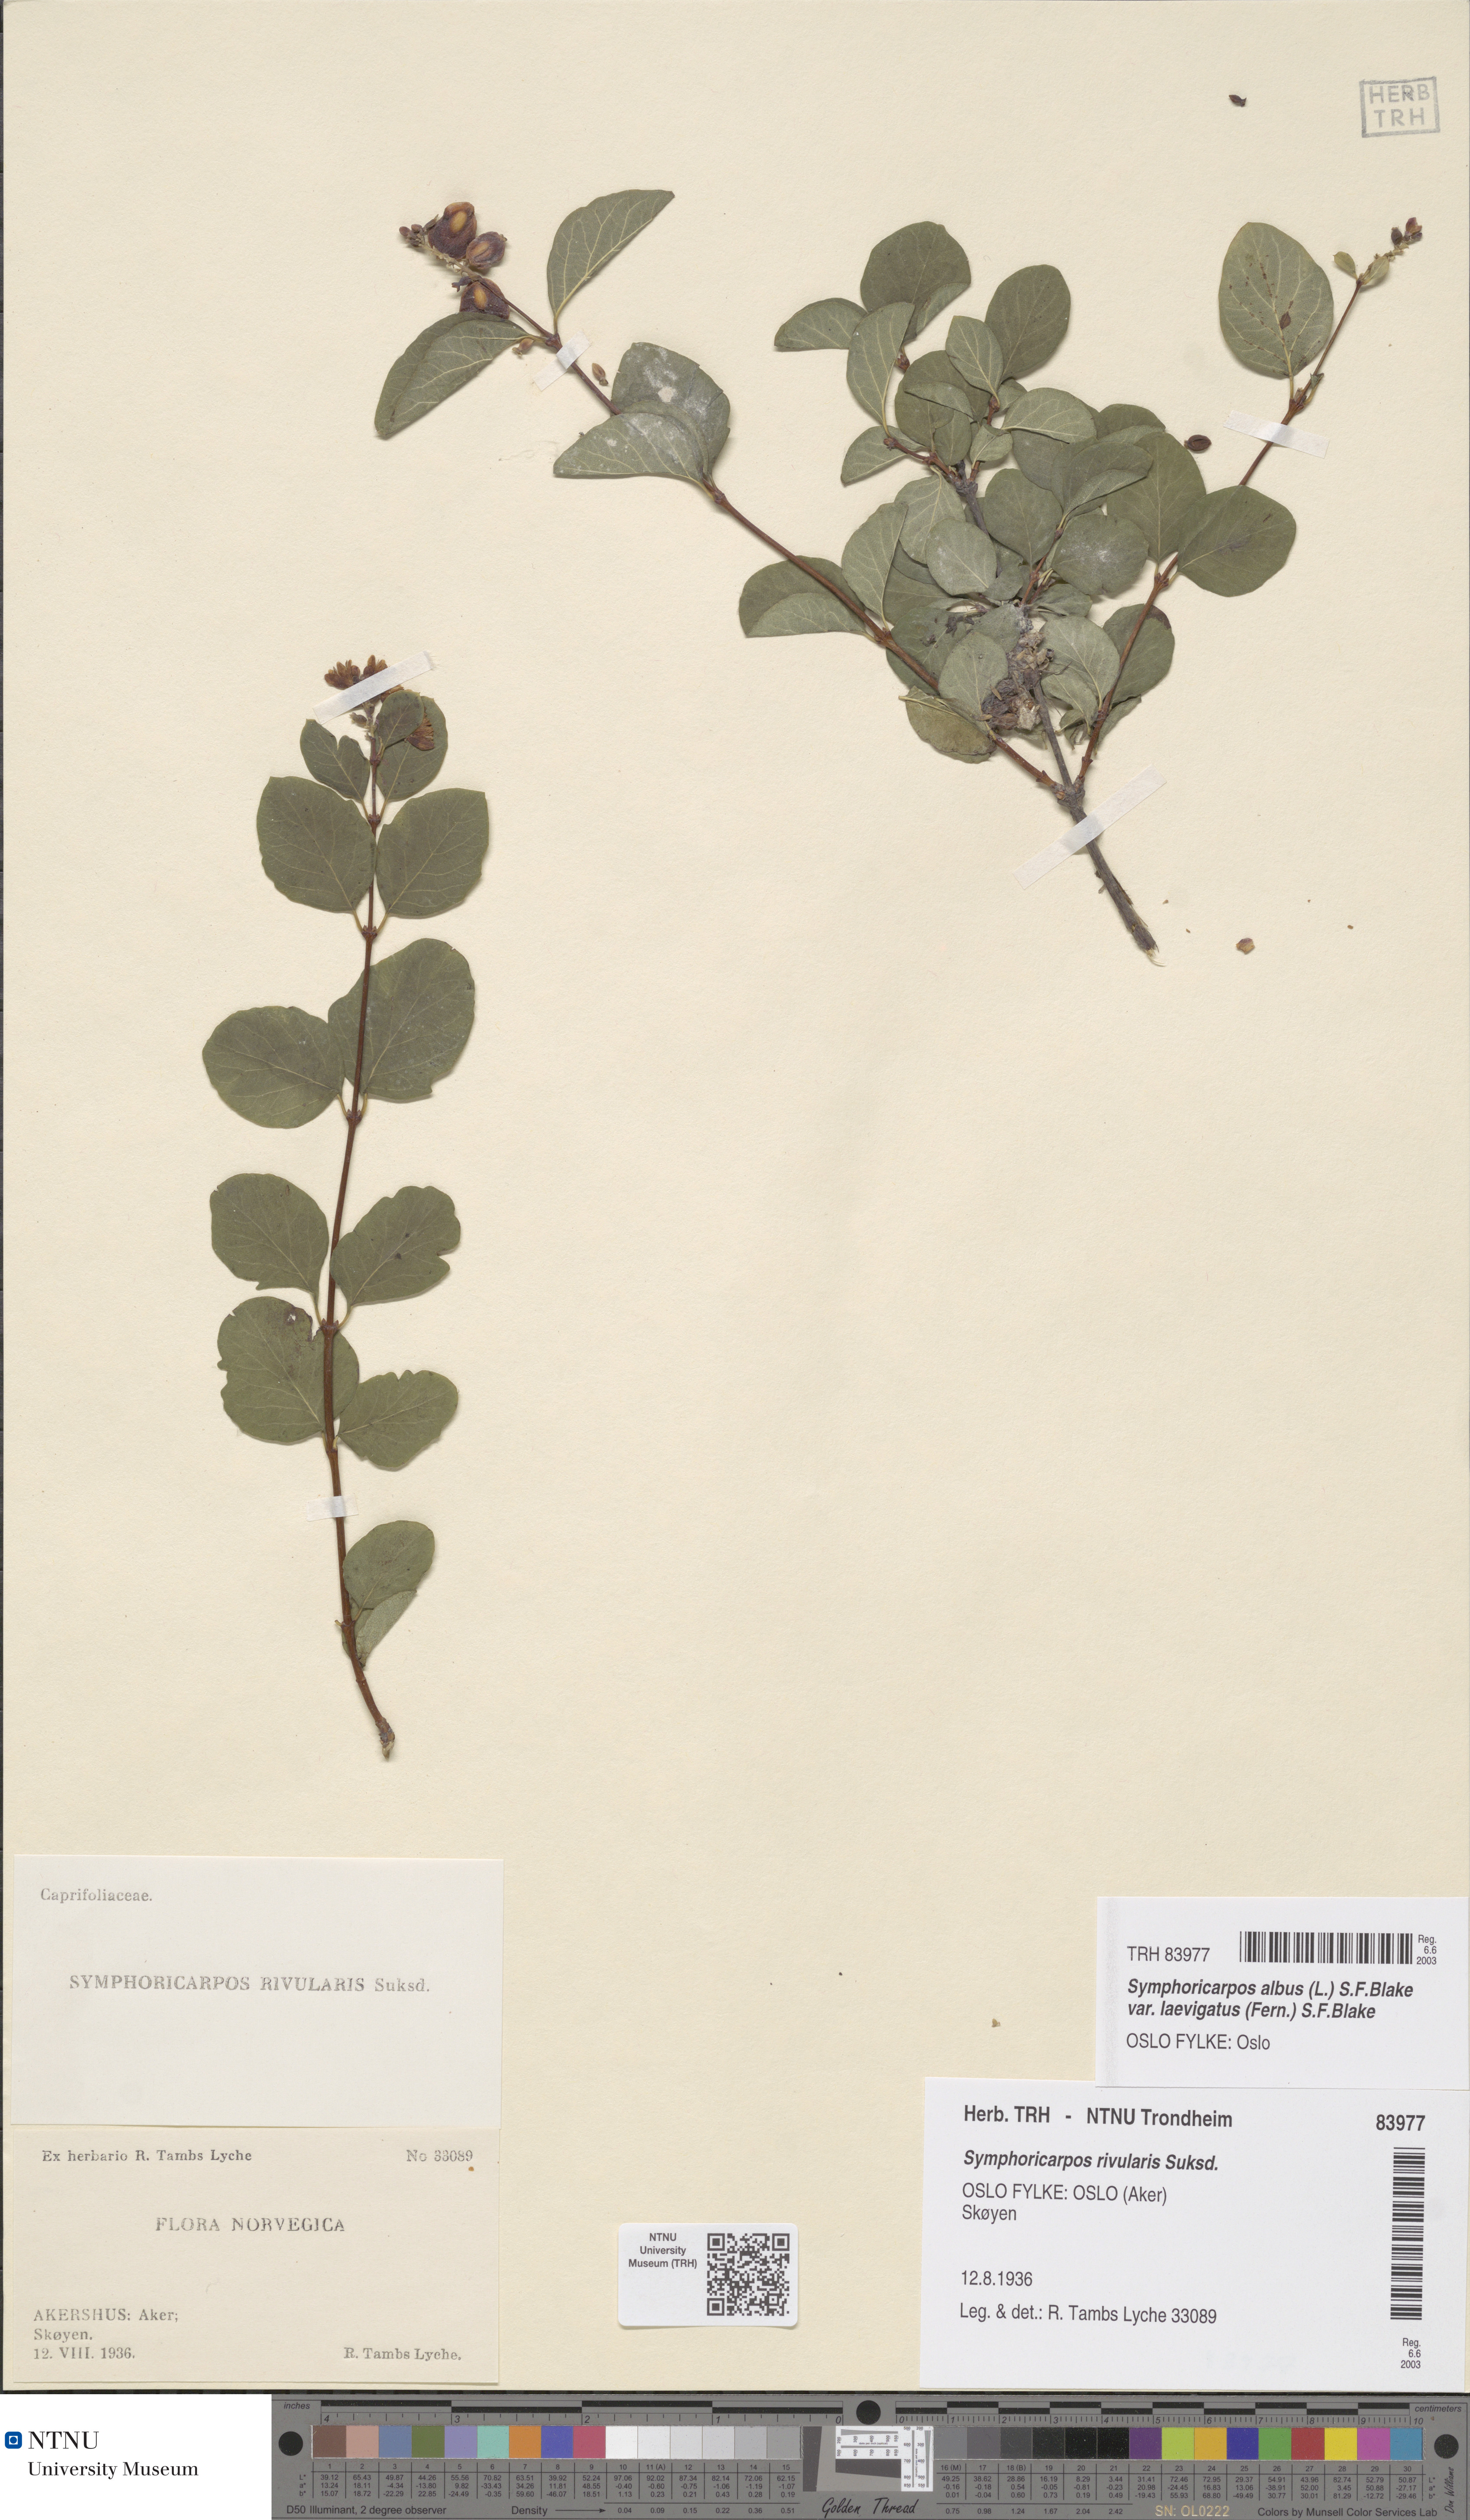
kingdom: Plantae
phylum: Tracheophyta
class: Magnoliopsida
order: Dipsacales
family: Caprifoliaceae
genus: Symphoricarpos
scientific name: Symphoricarpos albus
